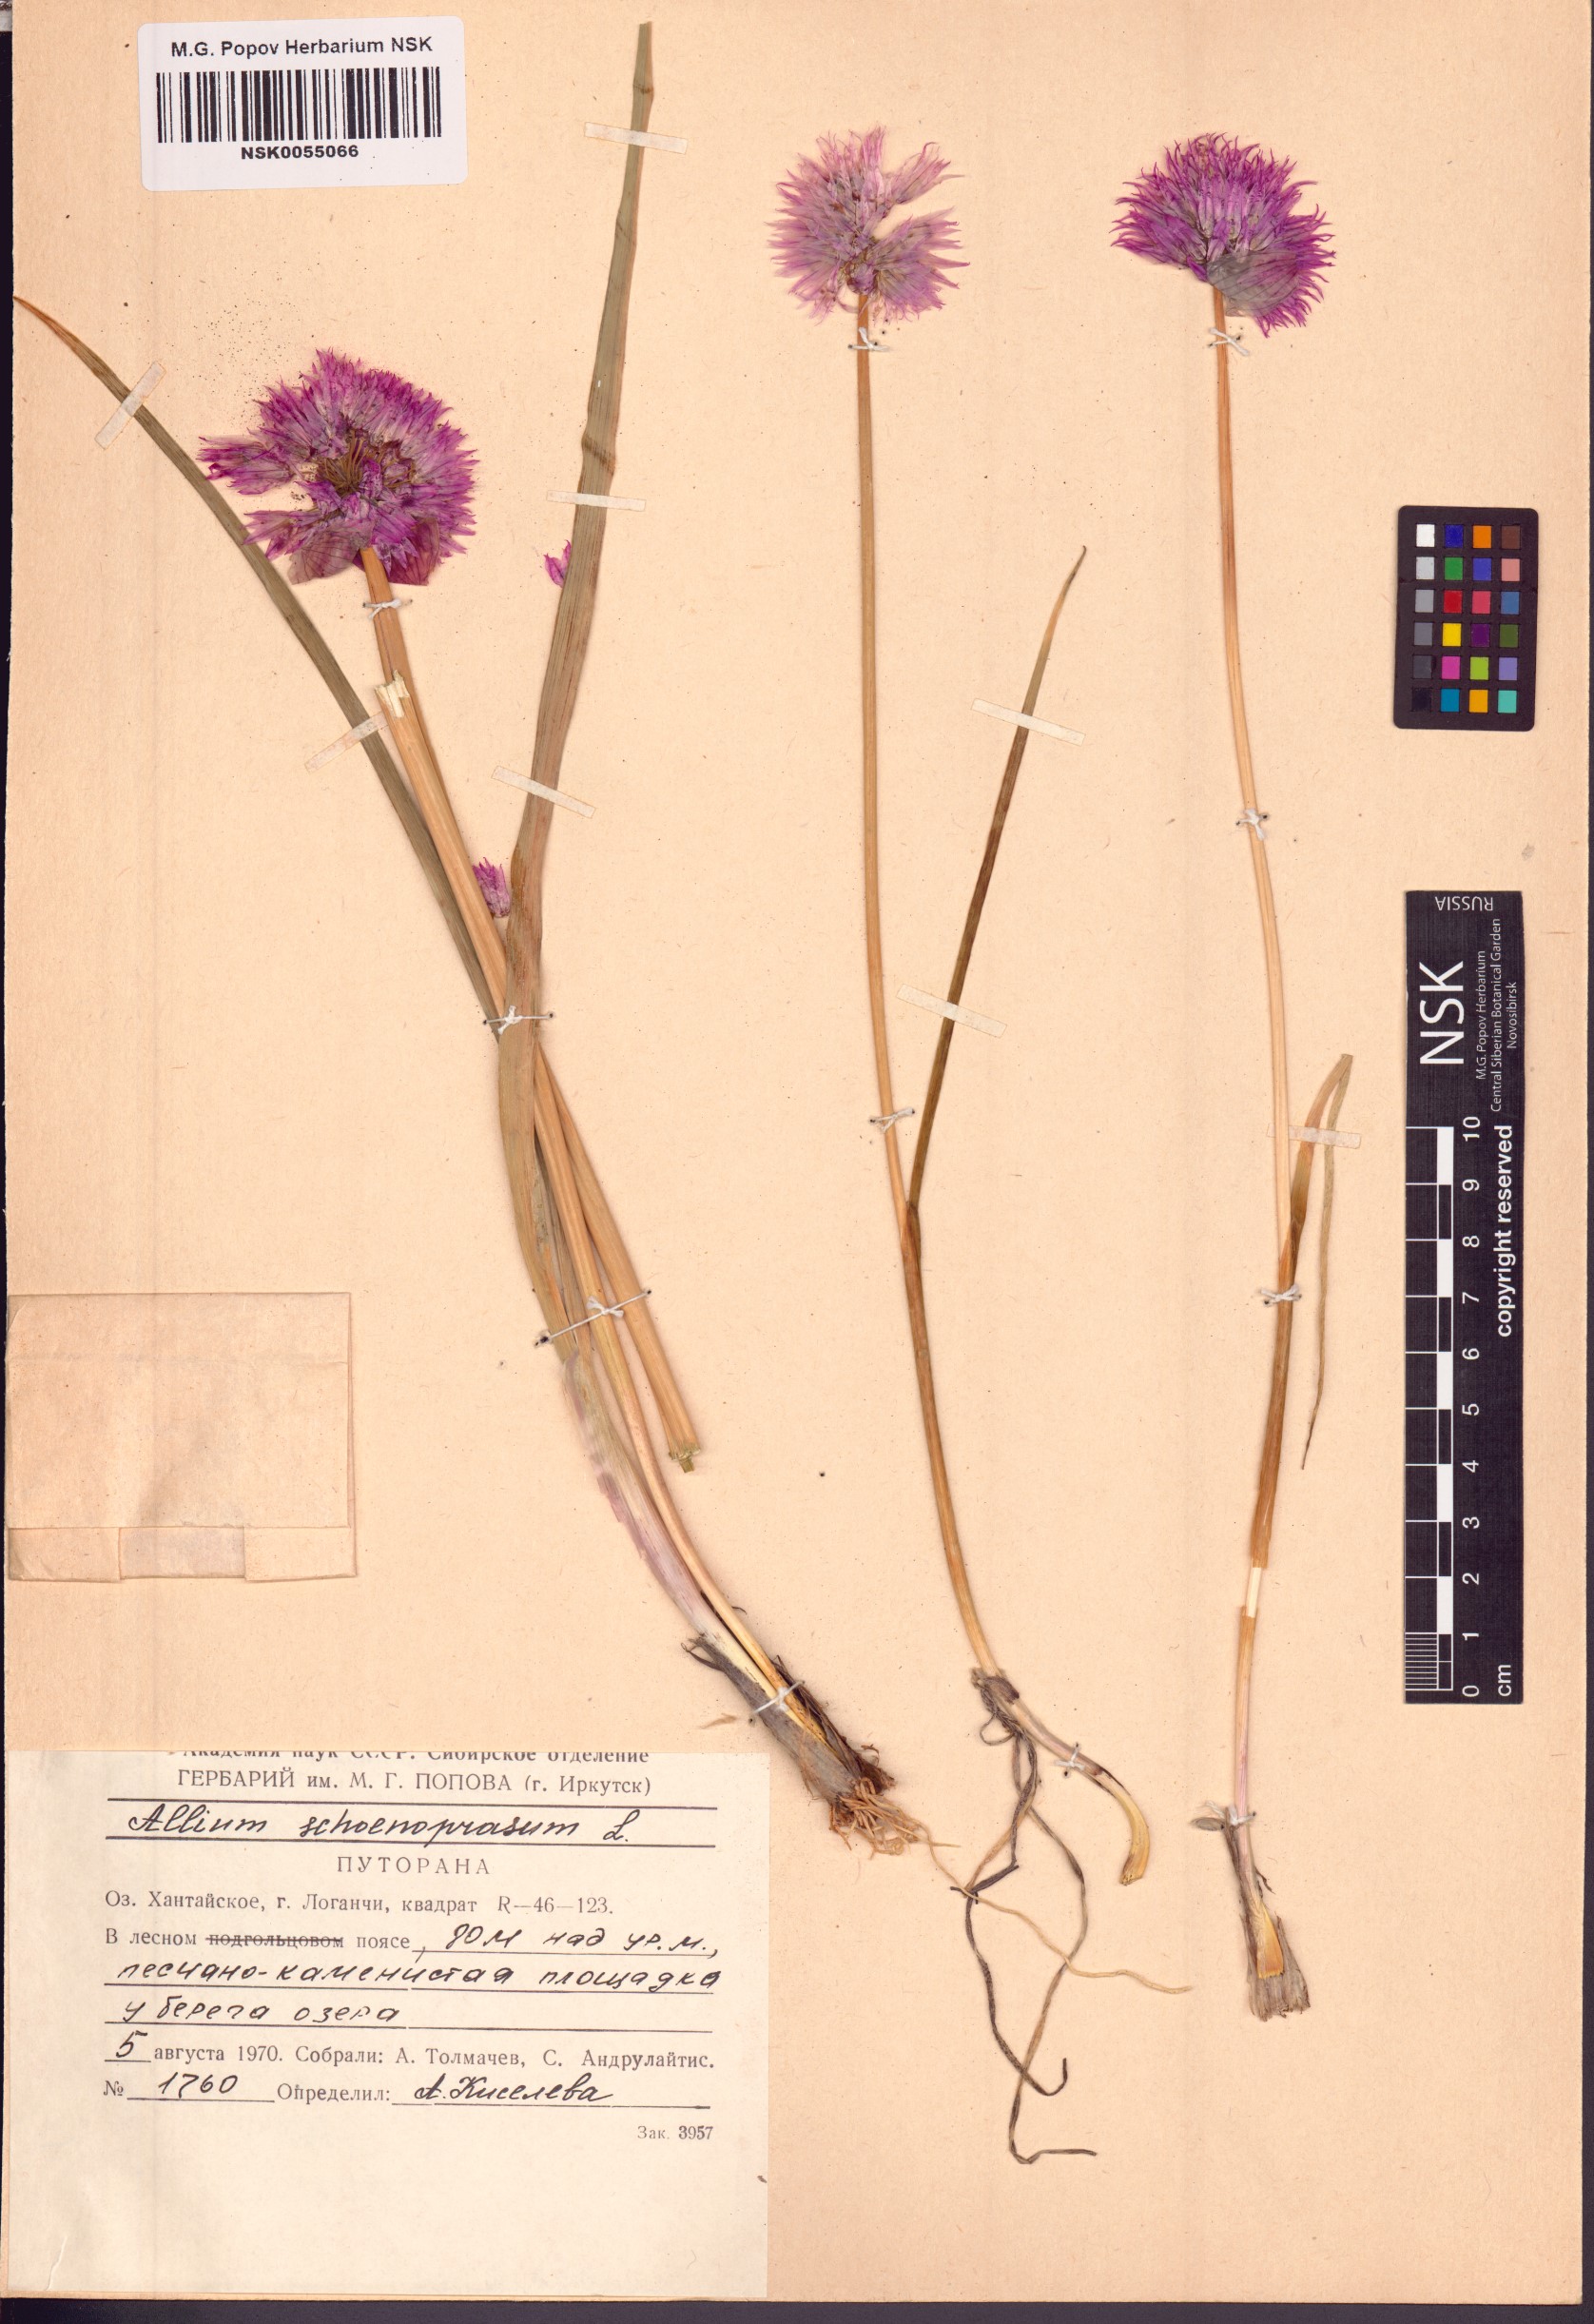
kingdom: Plantae
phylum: Tracheophyta
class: Liliopsida
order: Asparagales
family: Amaryllidaceae
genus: Allium
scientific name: Allium schoenoprasum
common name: Chives
